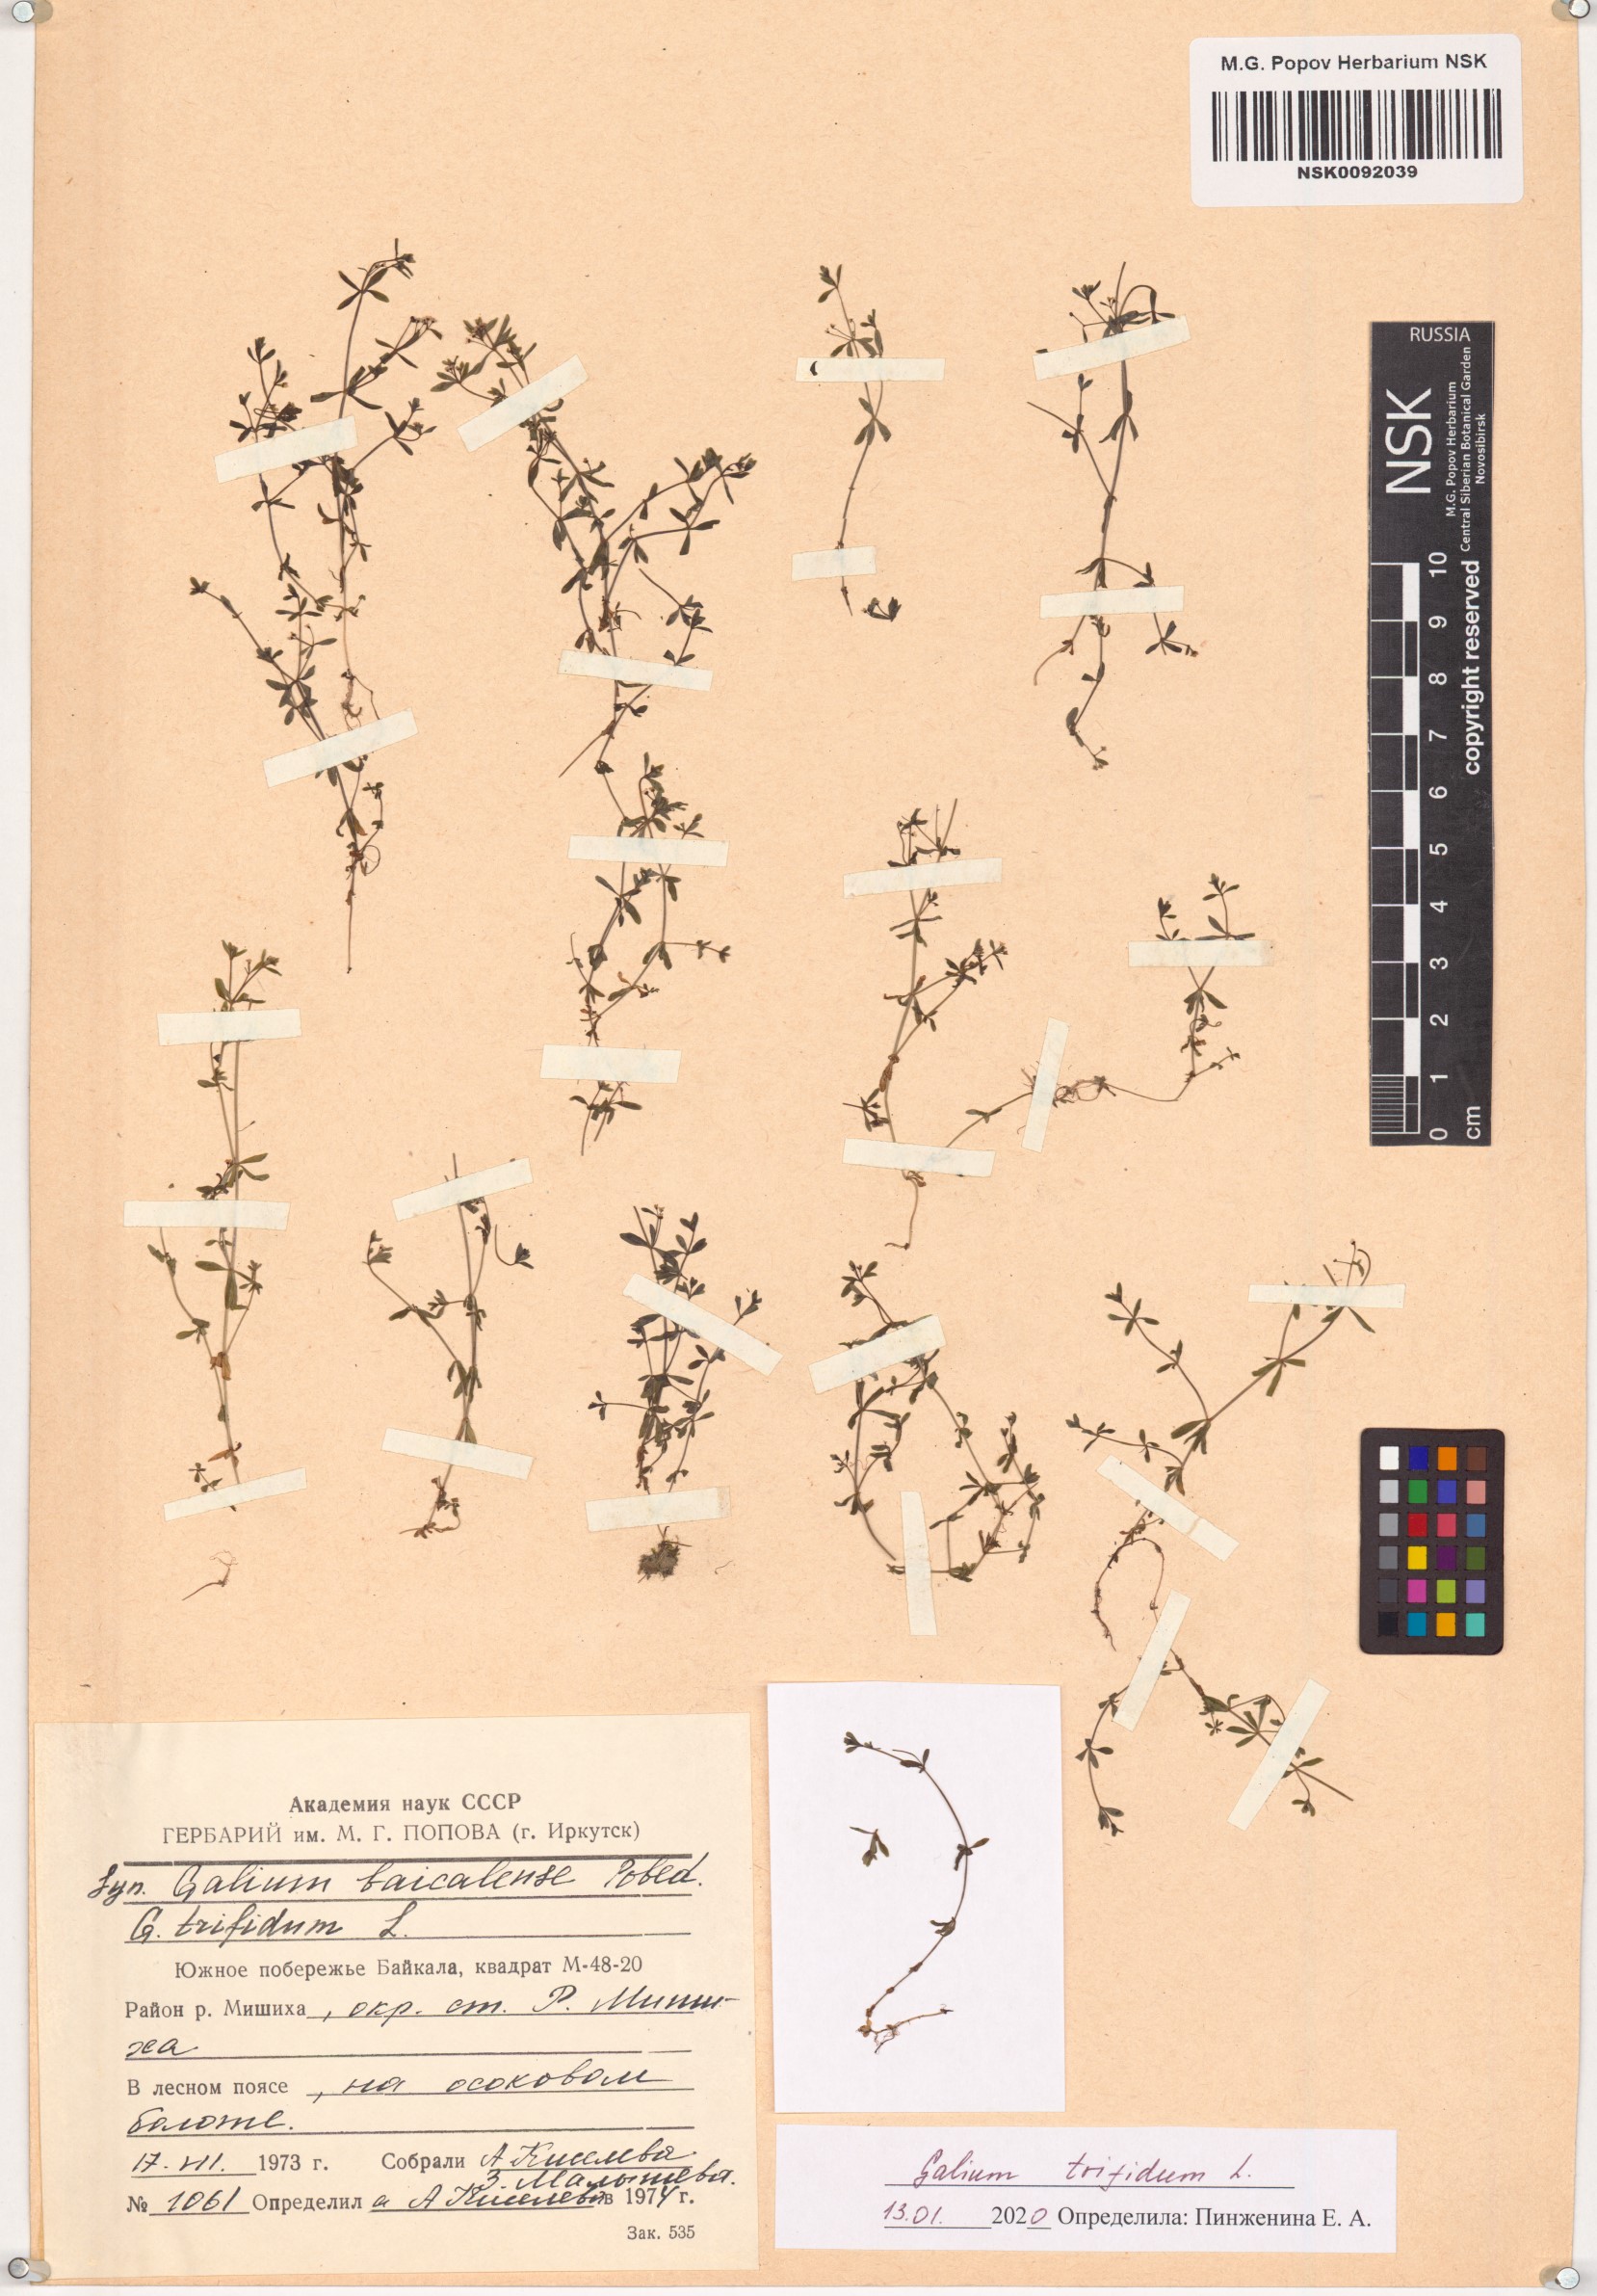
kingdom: Plantae
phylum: Tracheophyta
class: Magnoliopsida
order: Gentianales
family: Rubiaceae
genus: Galium
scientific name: Galium trifidum
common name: Small bedstraw
